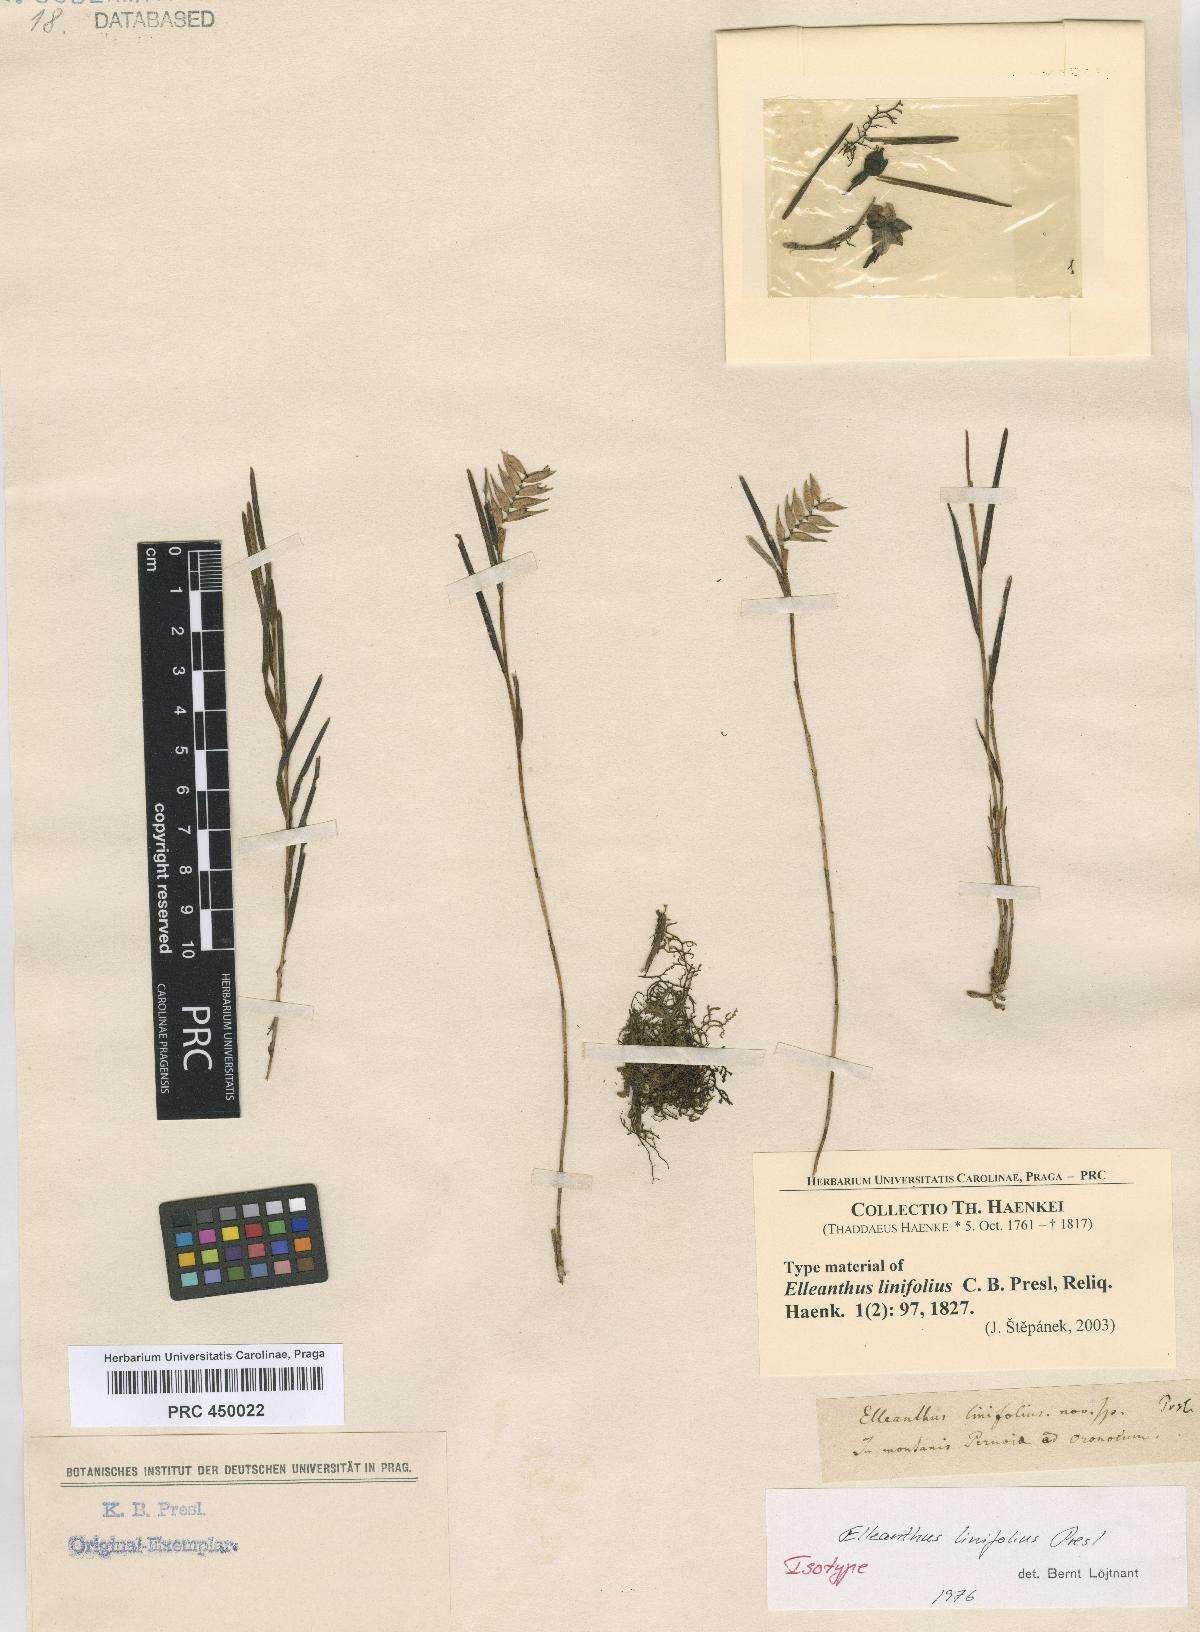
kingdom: Plantae
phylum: Tracheophyta
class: Liliopsida
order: Asparagales
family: Orchidaceae
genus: Elleanthus
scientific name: Elleanthus linifolius
